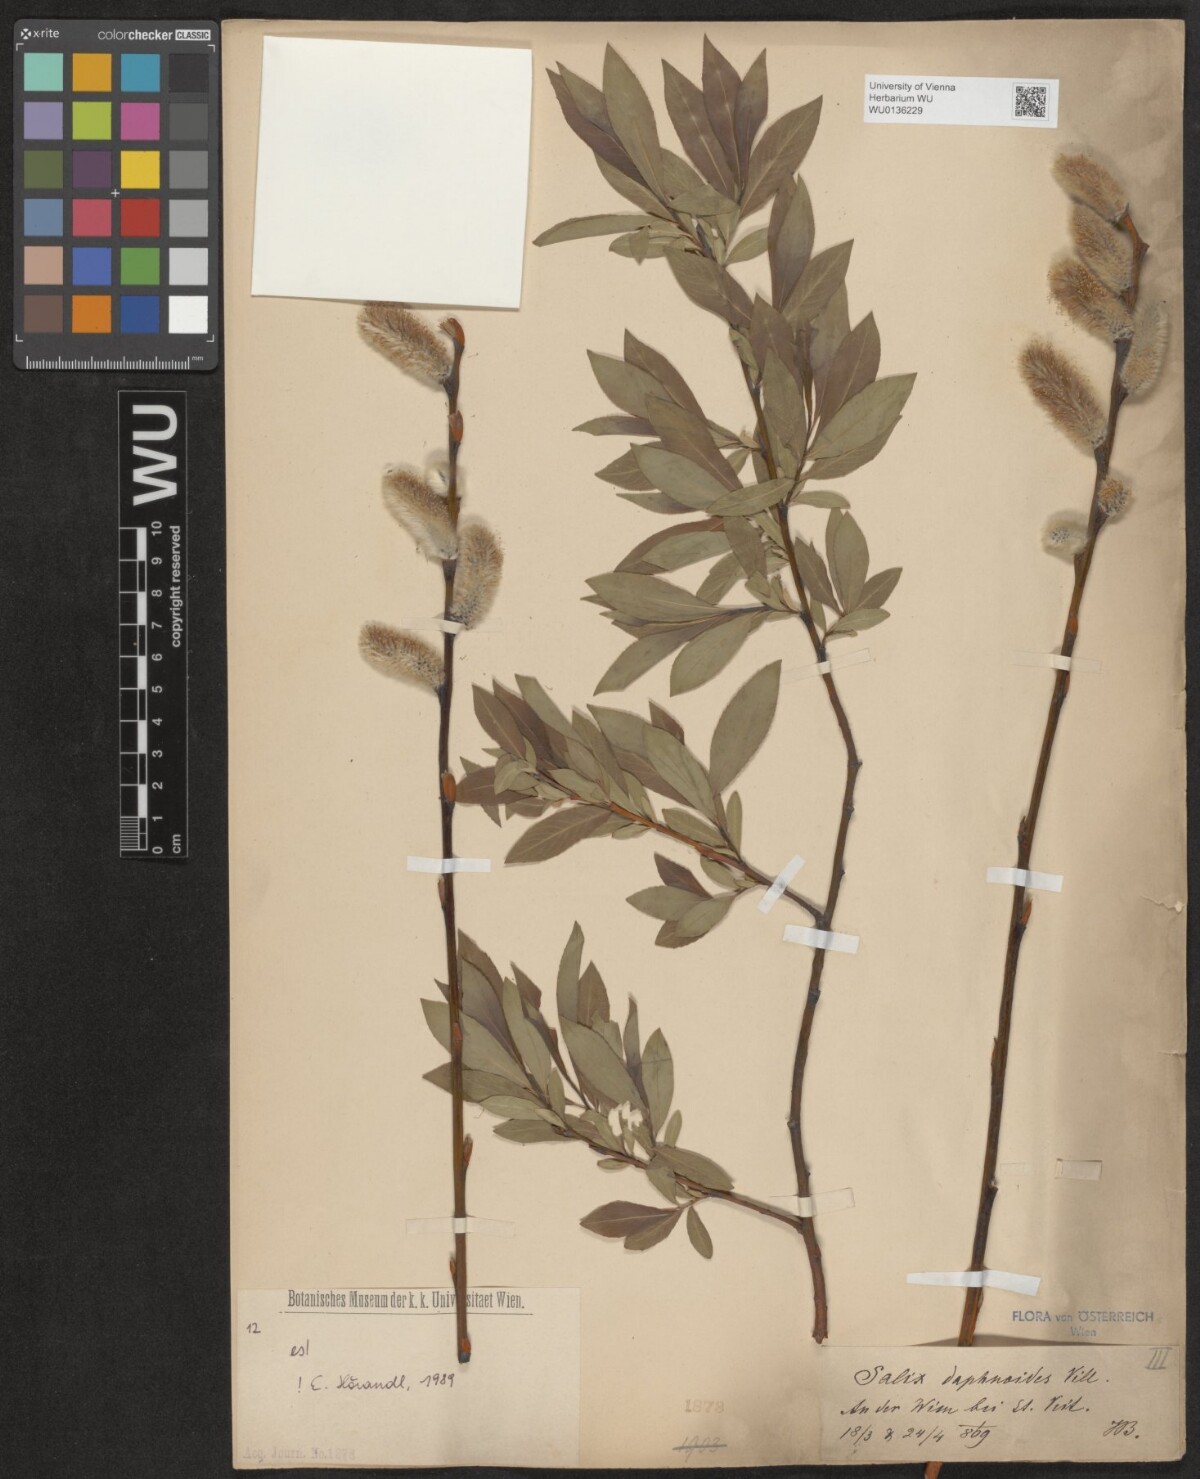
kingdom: Plantae
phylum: Tracheophyta
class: Magnoliopsida
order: Malpighiales
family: Salicaceae
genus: Salix
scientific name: Salix daphnoides
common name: European violet-willow
